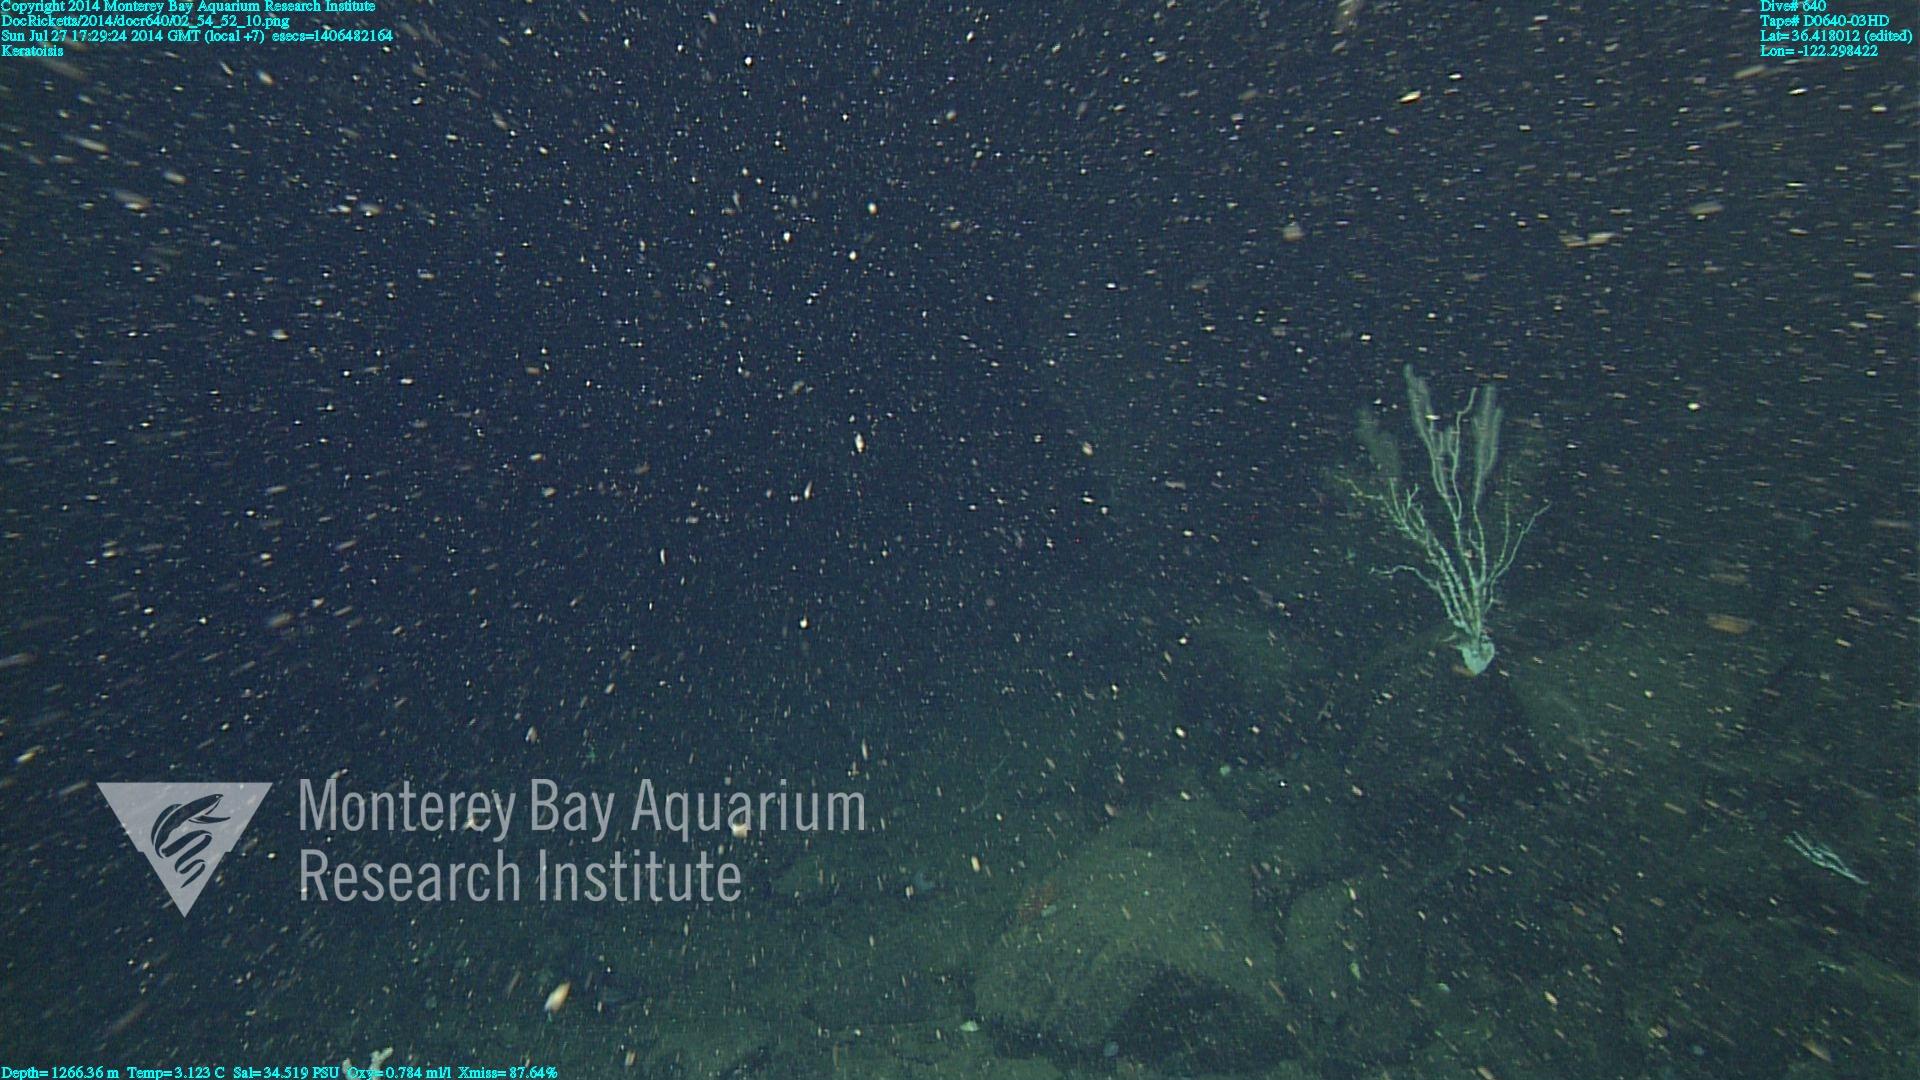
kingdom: Animalia
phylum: Cnidaria
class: Anthozoa
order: Scleralcyonacea
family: Keratoisididae
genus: Keratoisis
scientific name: Keratoisis
